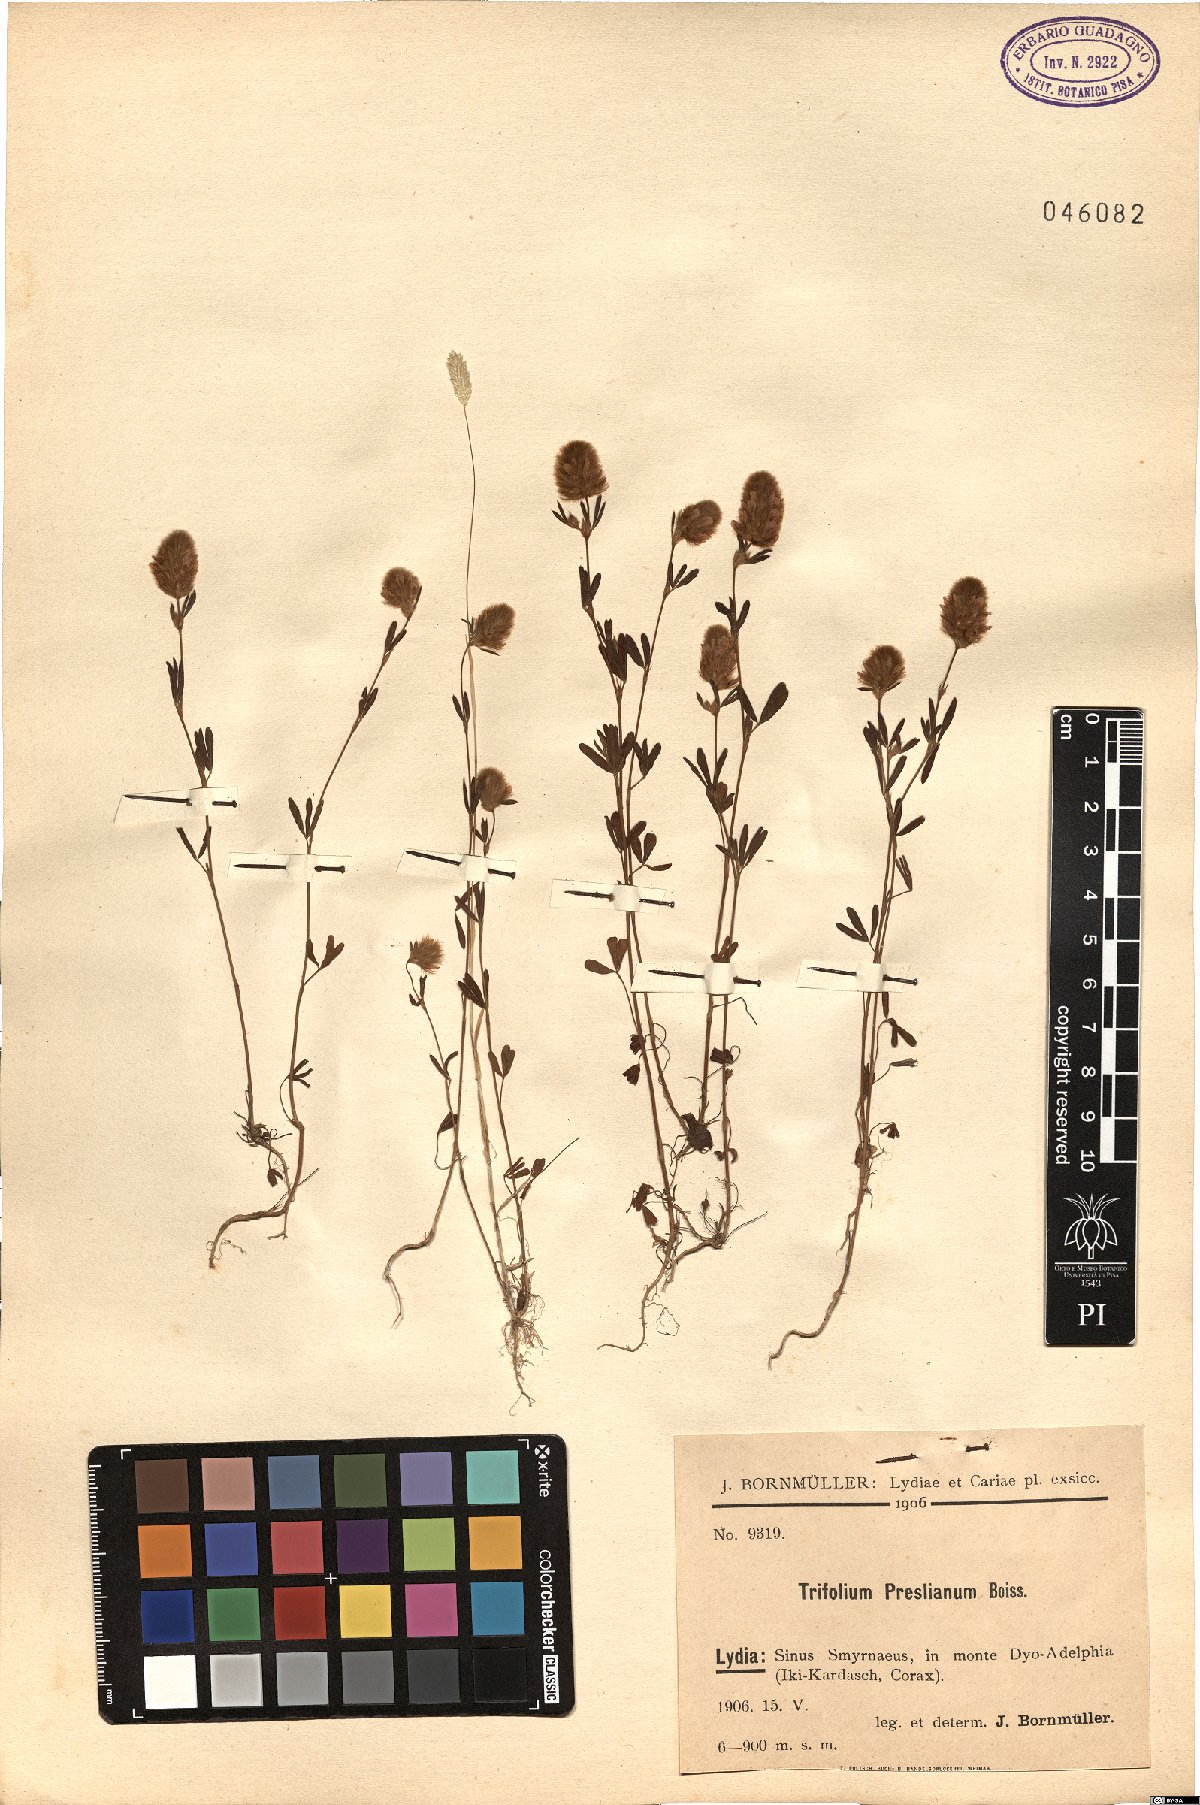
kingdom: Plantae
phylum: Tracheophyta
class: Magnoliopsida
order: Fabales
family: Fabaceae
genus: Trifolium
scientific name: Trifolium arvense
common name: Hare's-foot clover
